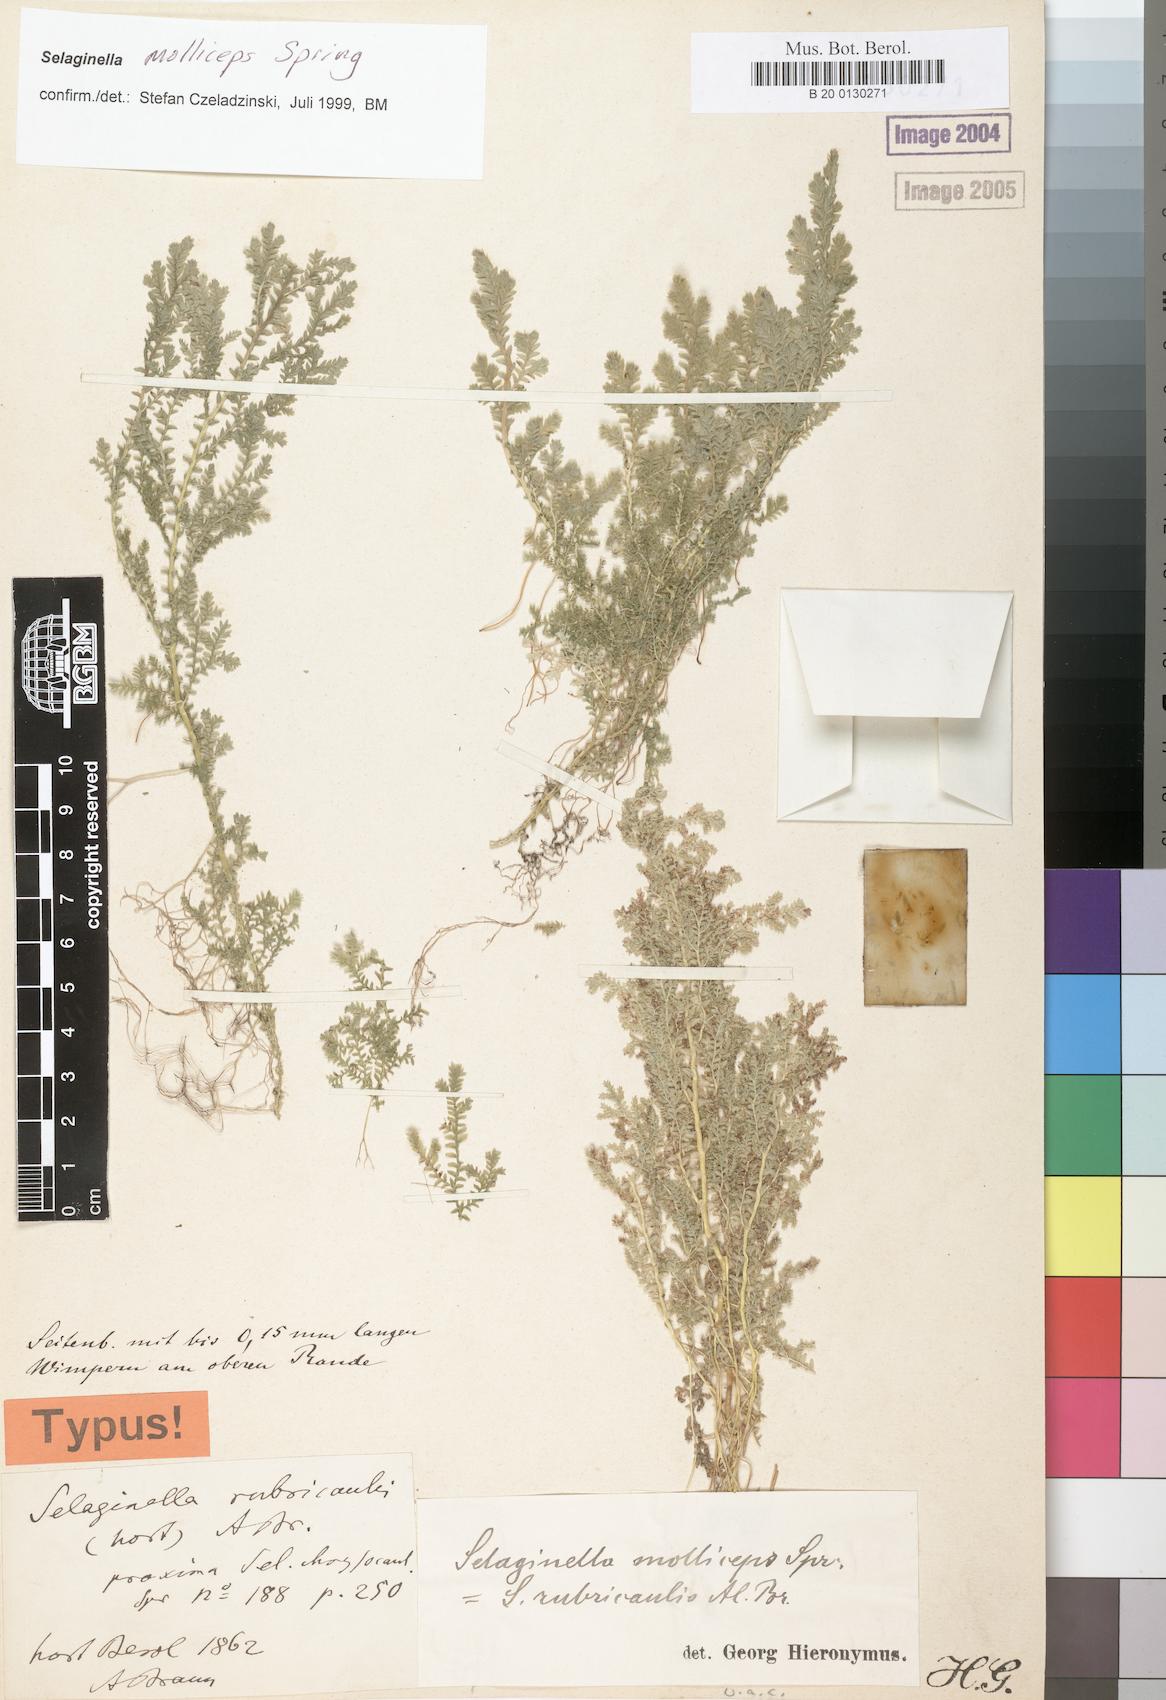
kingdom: Plantae
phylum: Tracheophyta
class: Lycopodiopsida
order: Selaginellales
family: Selaginellaceae
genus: Selaginella
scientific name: Selaginella molliceps
